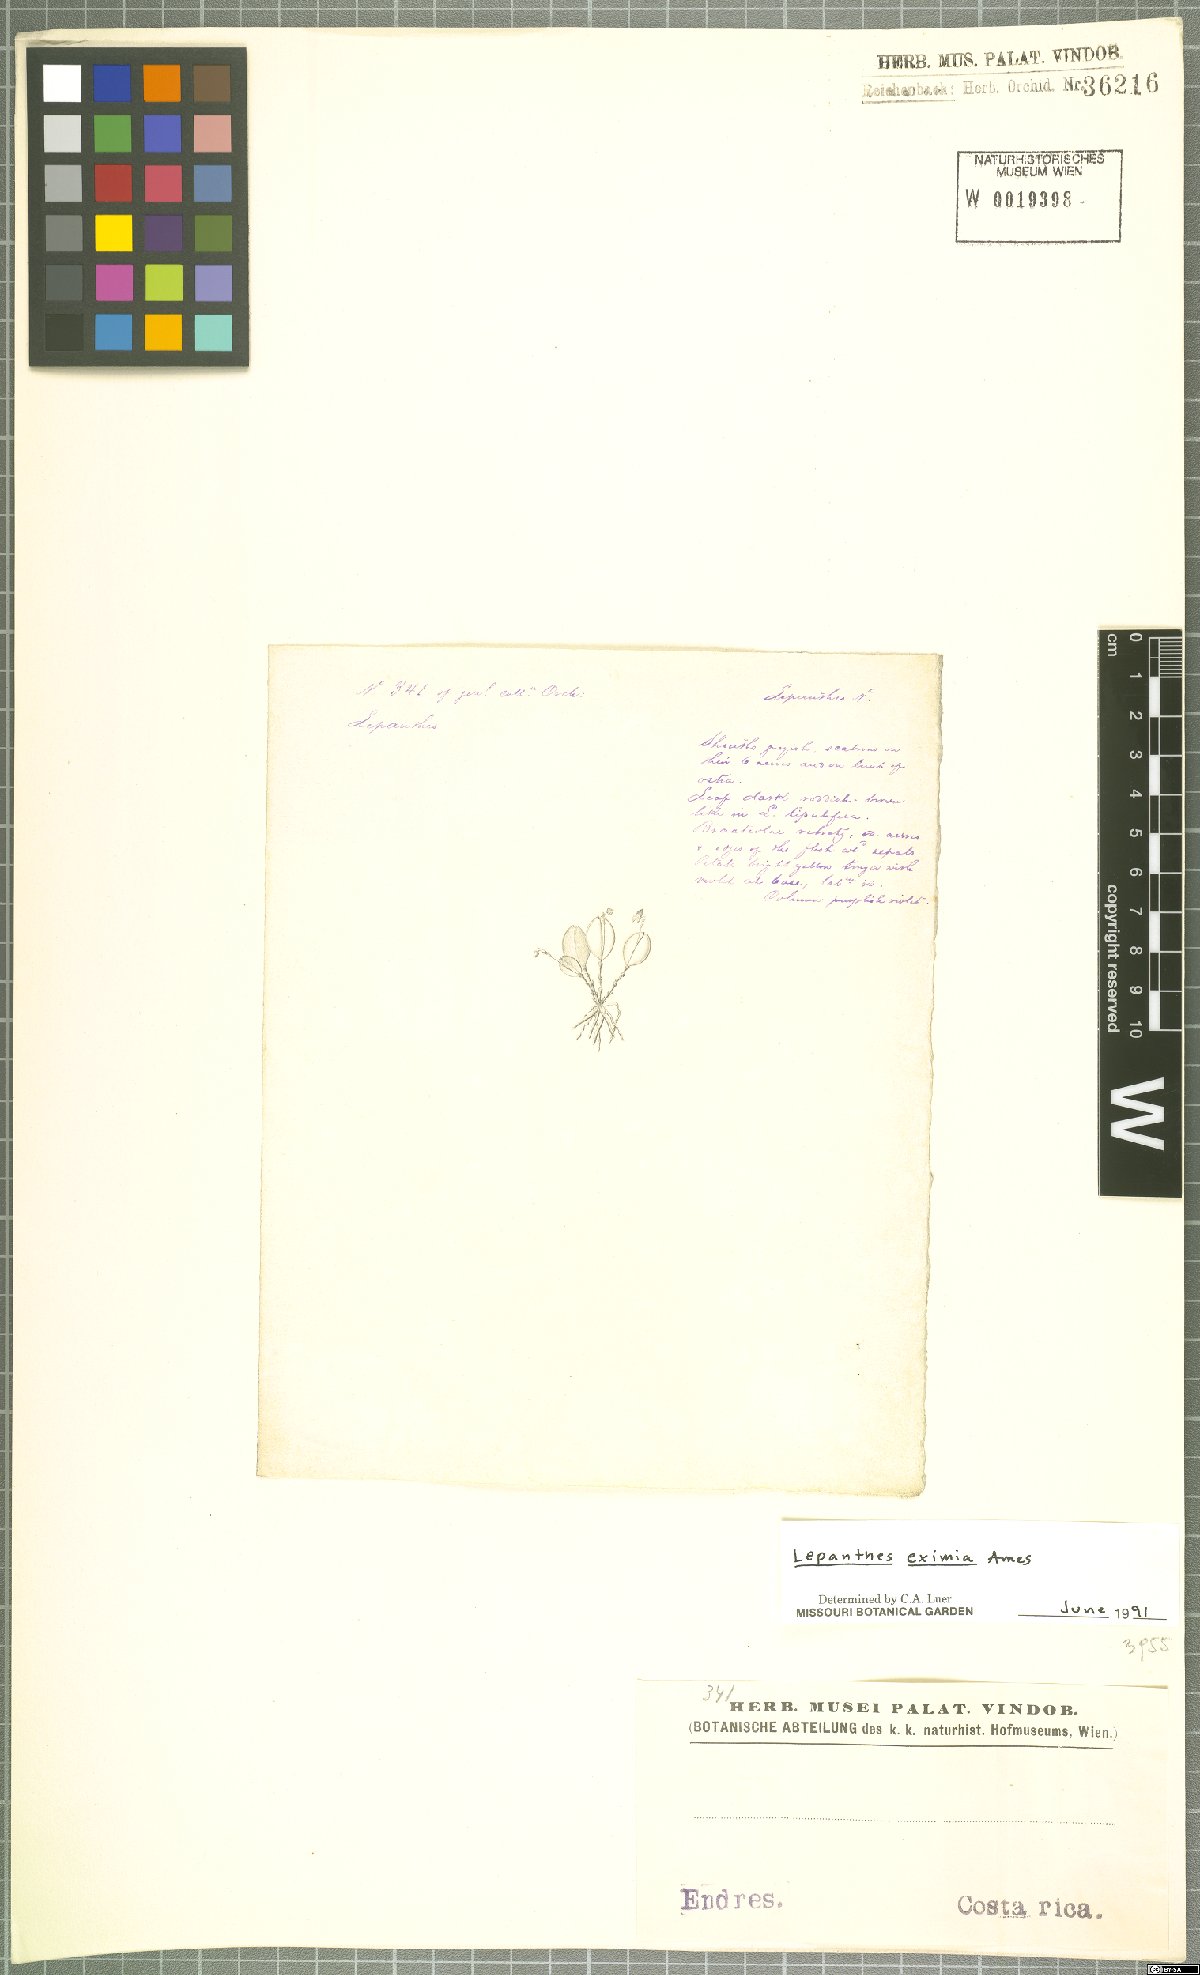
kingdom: Plantae
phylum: Tracheophyta
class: Liliopsida
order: Asparagales
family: Orchidaceae
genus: Lepanthes
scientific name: Lepanthes eximia
